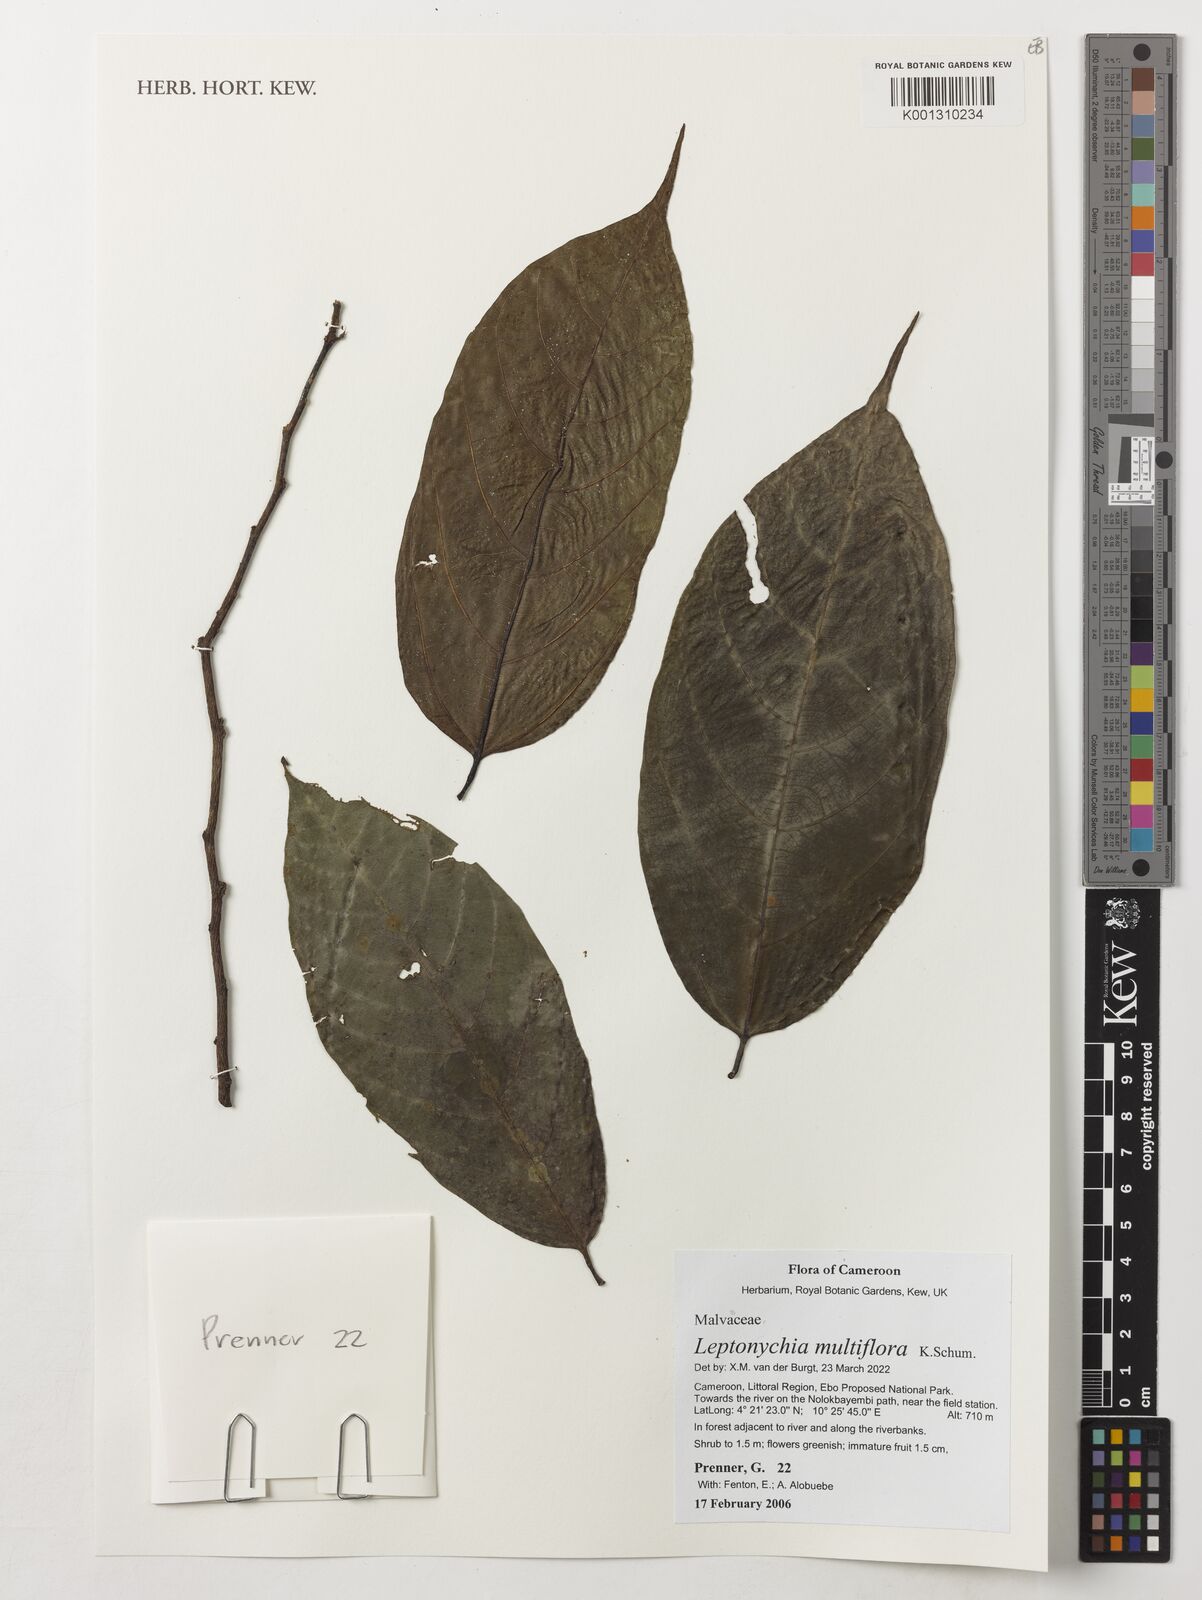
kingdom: Plantae
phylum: Tracheophyta
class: Magnoliopsida
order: Malvales
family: Malvaceae
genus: Leptonychia
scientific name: Leptonychia multiflora
